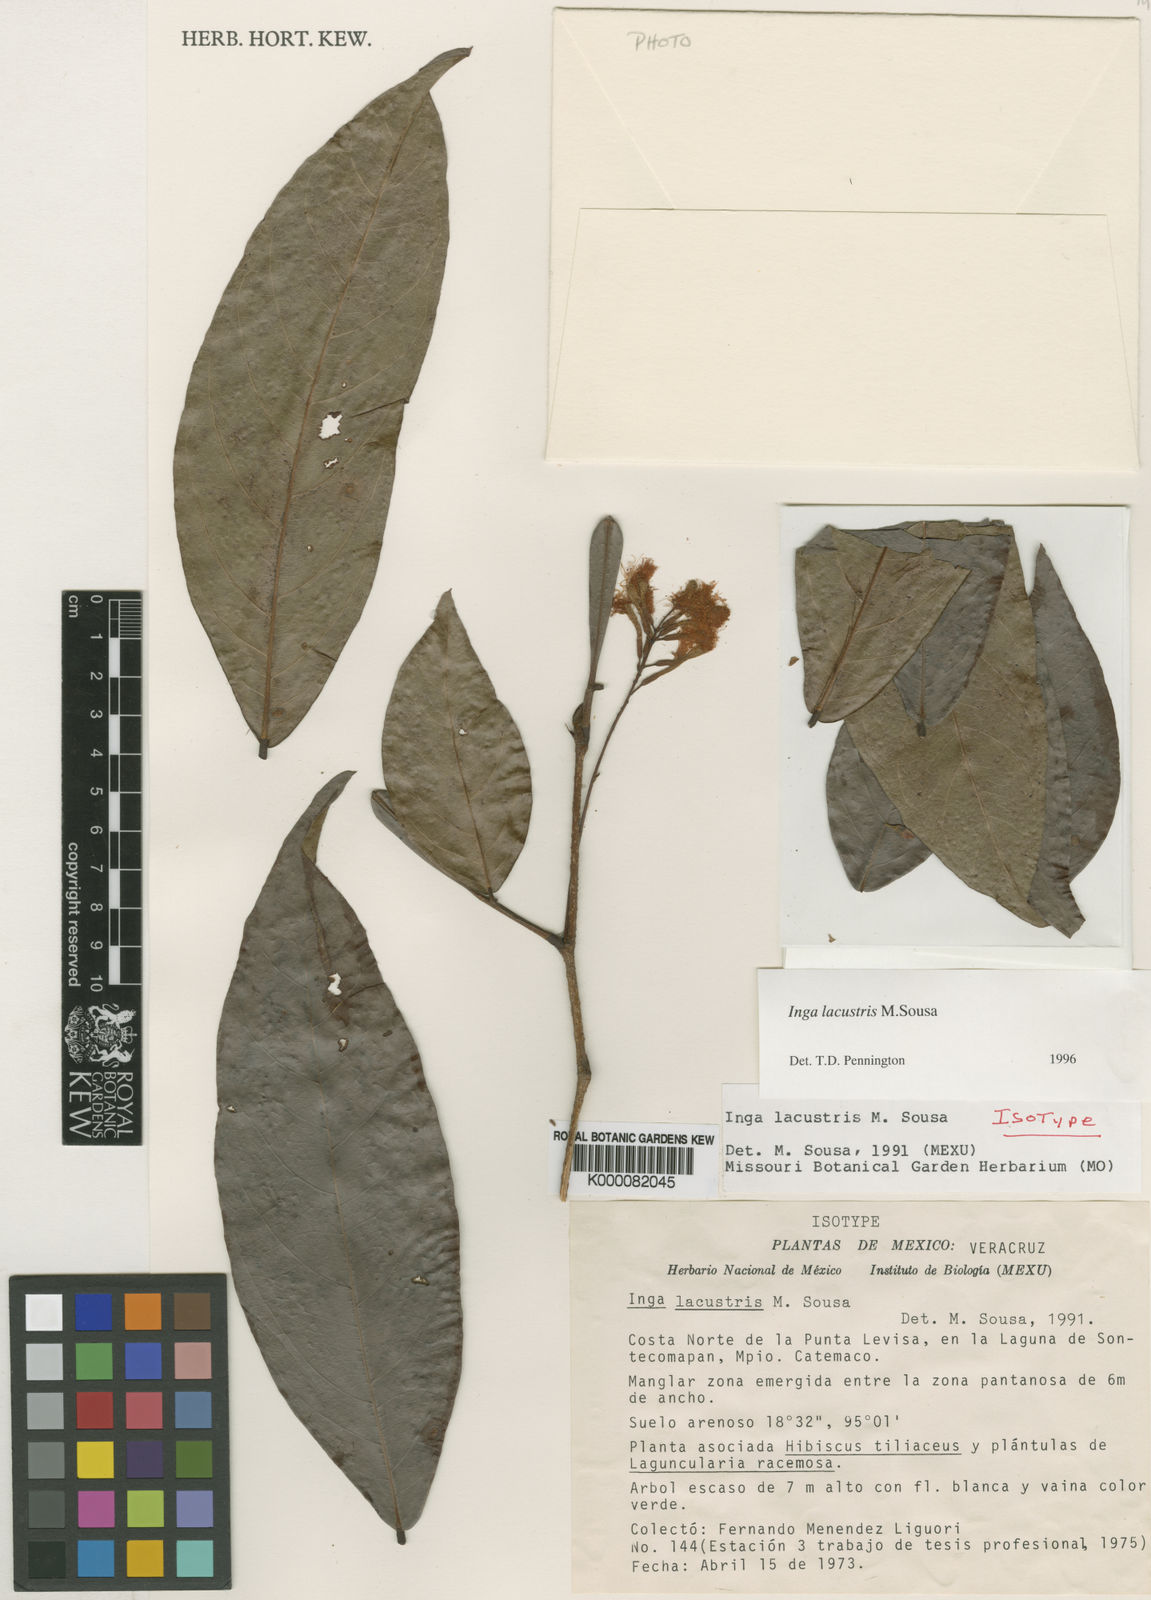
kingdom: Plantae
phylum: Tracheophyta
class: Magnoliopsida
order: Fabales
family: Fabaceae
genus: Inga
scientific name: Inga lacustris
